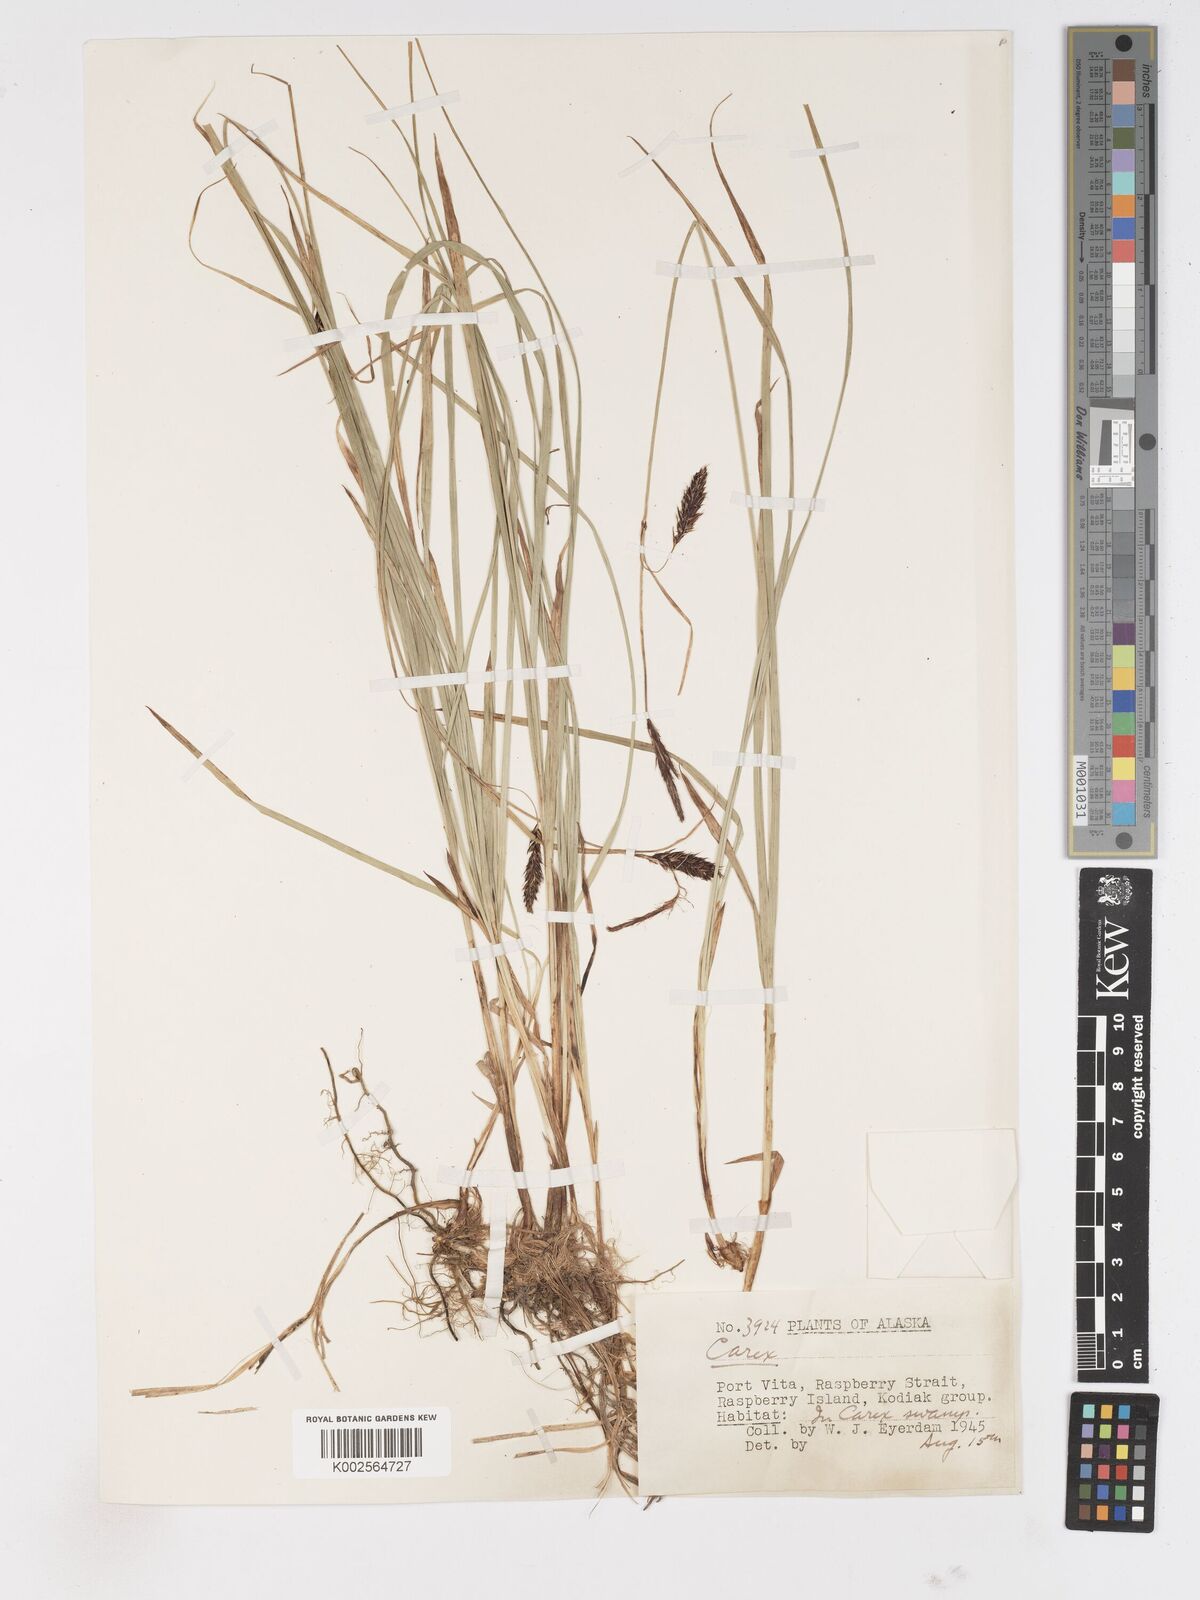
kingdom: Plantae
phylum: Tracheophyta
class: Liliopsida
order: Poales
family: Cyperaceae
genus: Carex
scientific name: Carex
